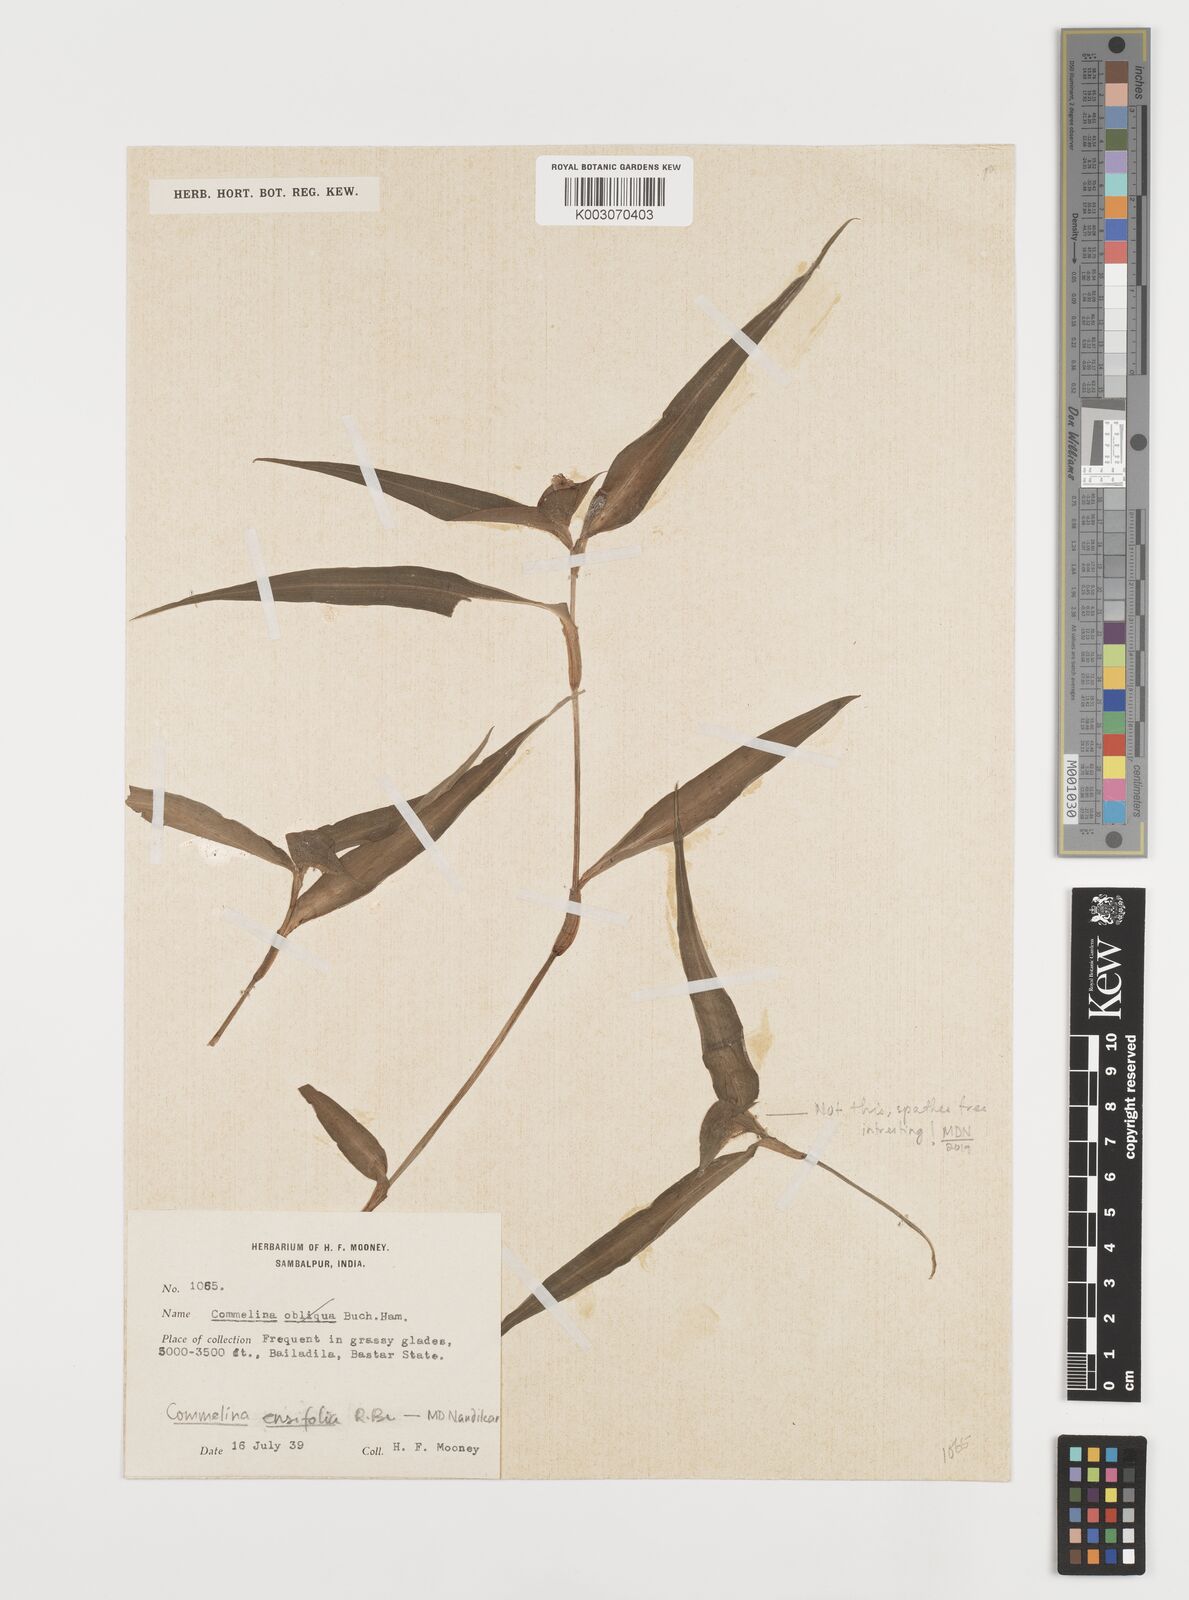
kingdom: Plantae
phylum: Tracheophyta
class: Liliopsida
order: Commelinales
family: Commelinaceae
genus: Commelina
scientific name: Commelina ensifolia
